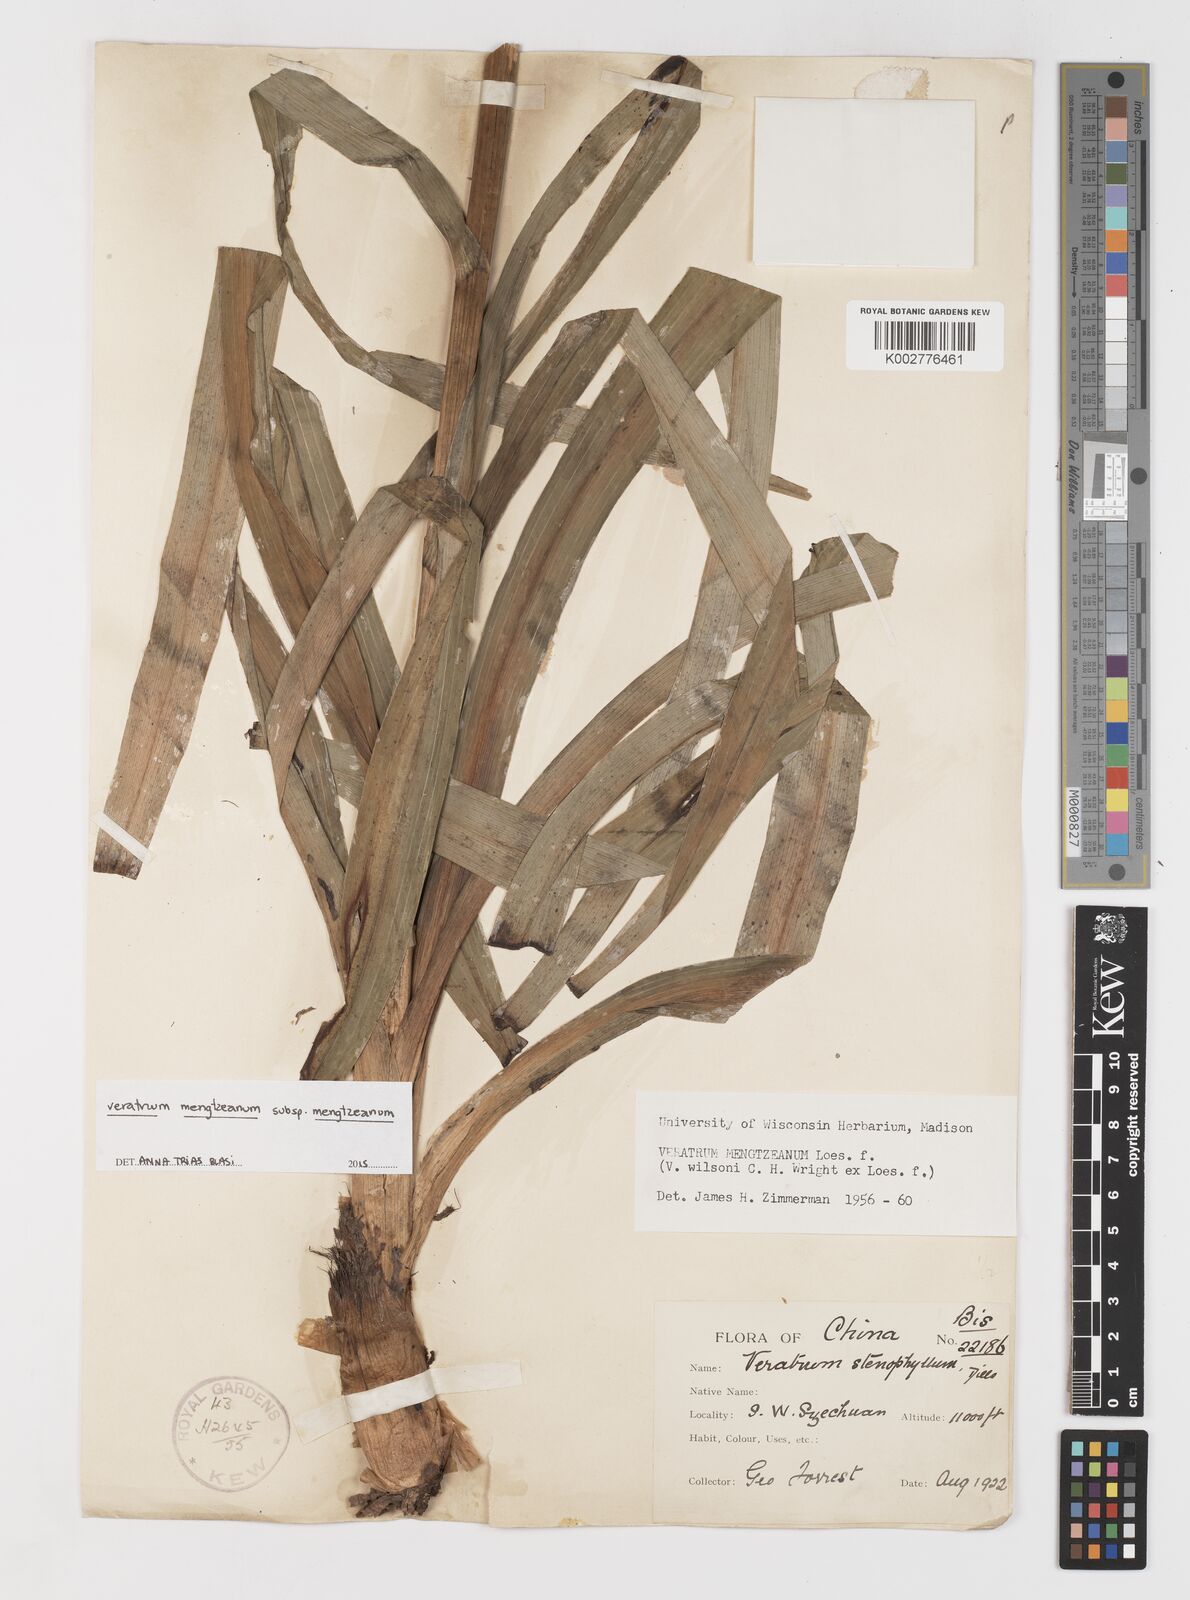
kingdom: Plantae
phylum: Tracheophyta
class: Liliopsida
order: Liliales
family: Melanthiaceae
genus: Veratrum
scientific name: Veratrum mengtzeanum
